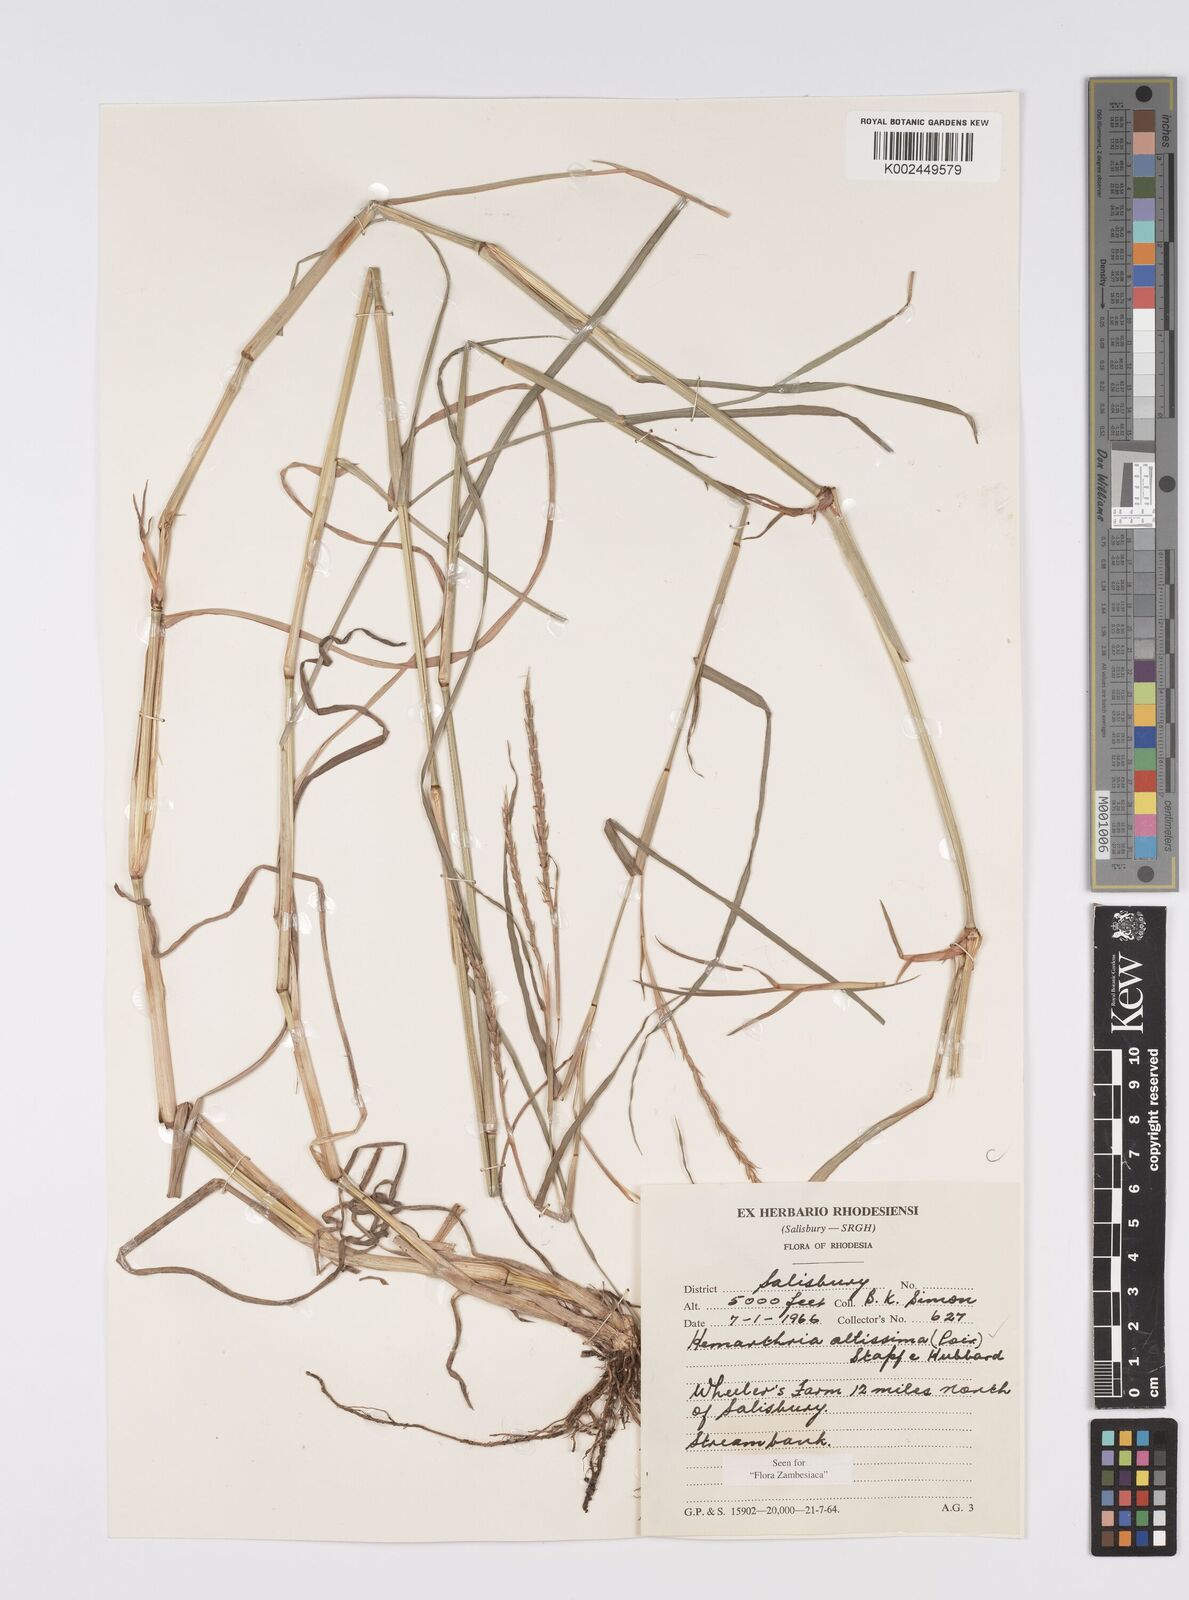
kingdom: Plantae
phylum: Tracheophyta
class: Liliopsida
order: Poales
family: Poaceae
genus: Hemarthria
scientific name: Hemarthria altissima
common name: African jointgrass
